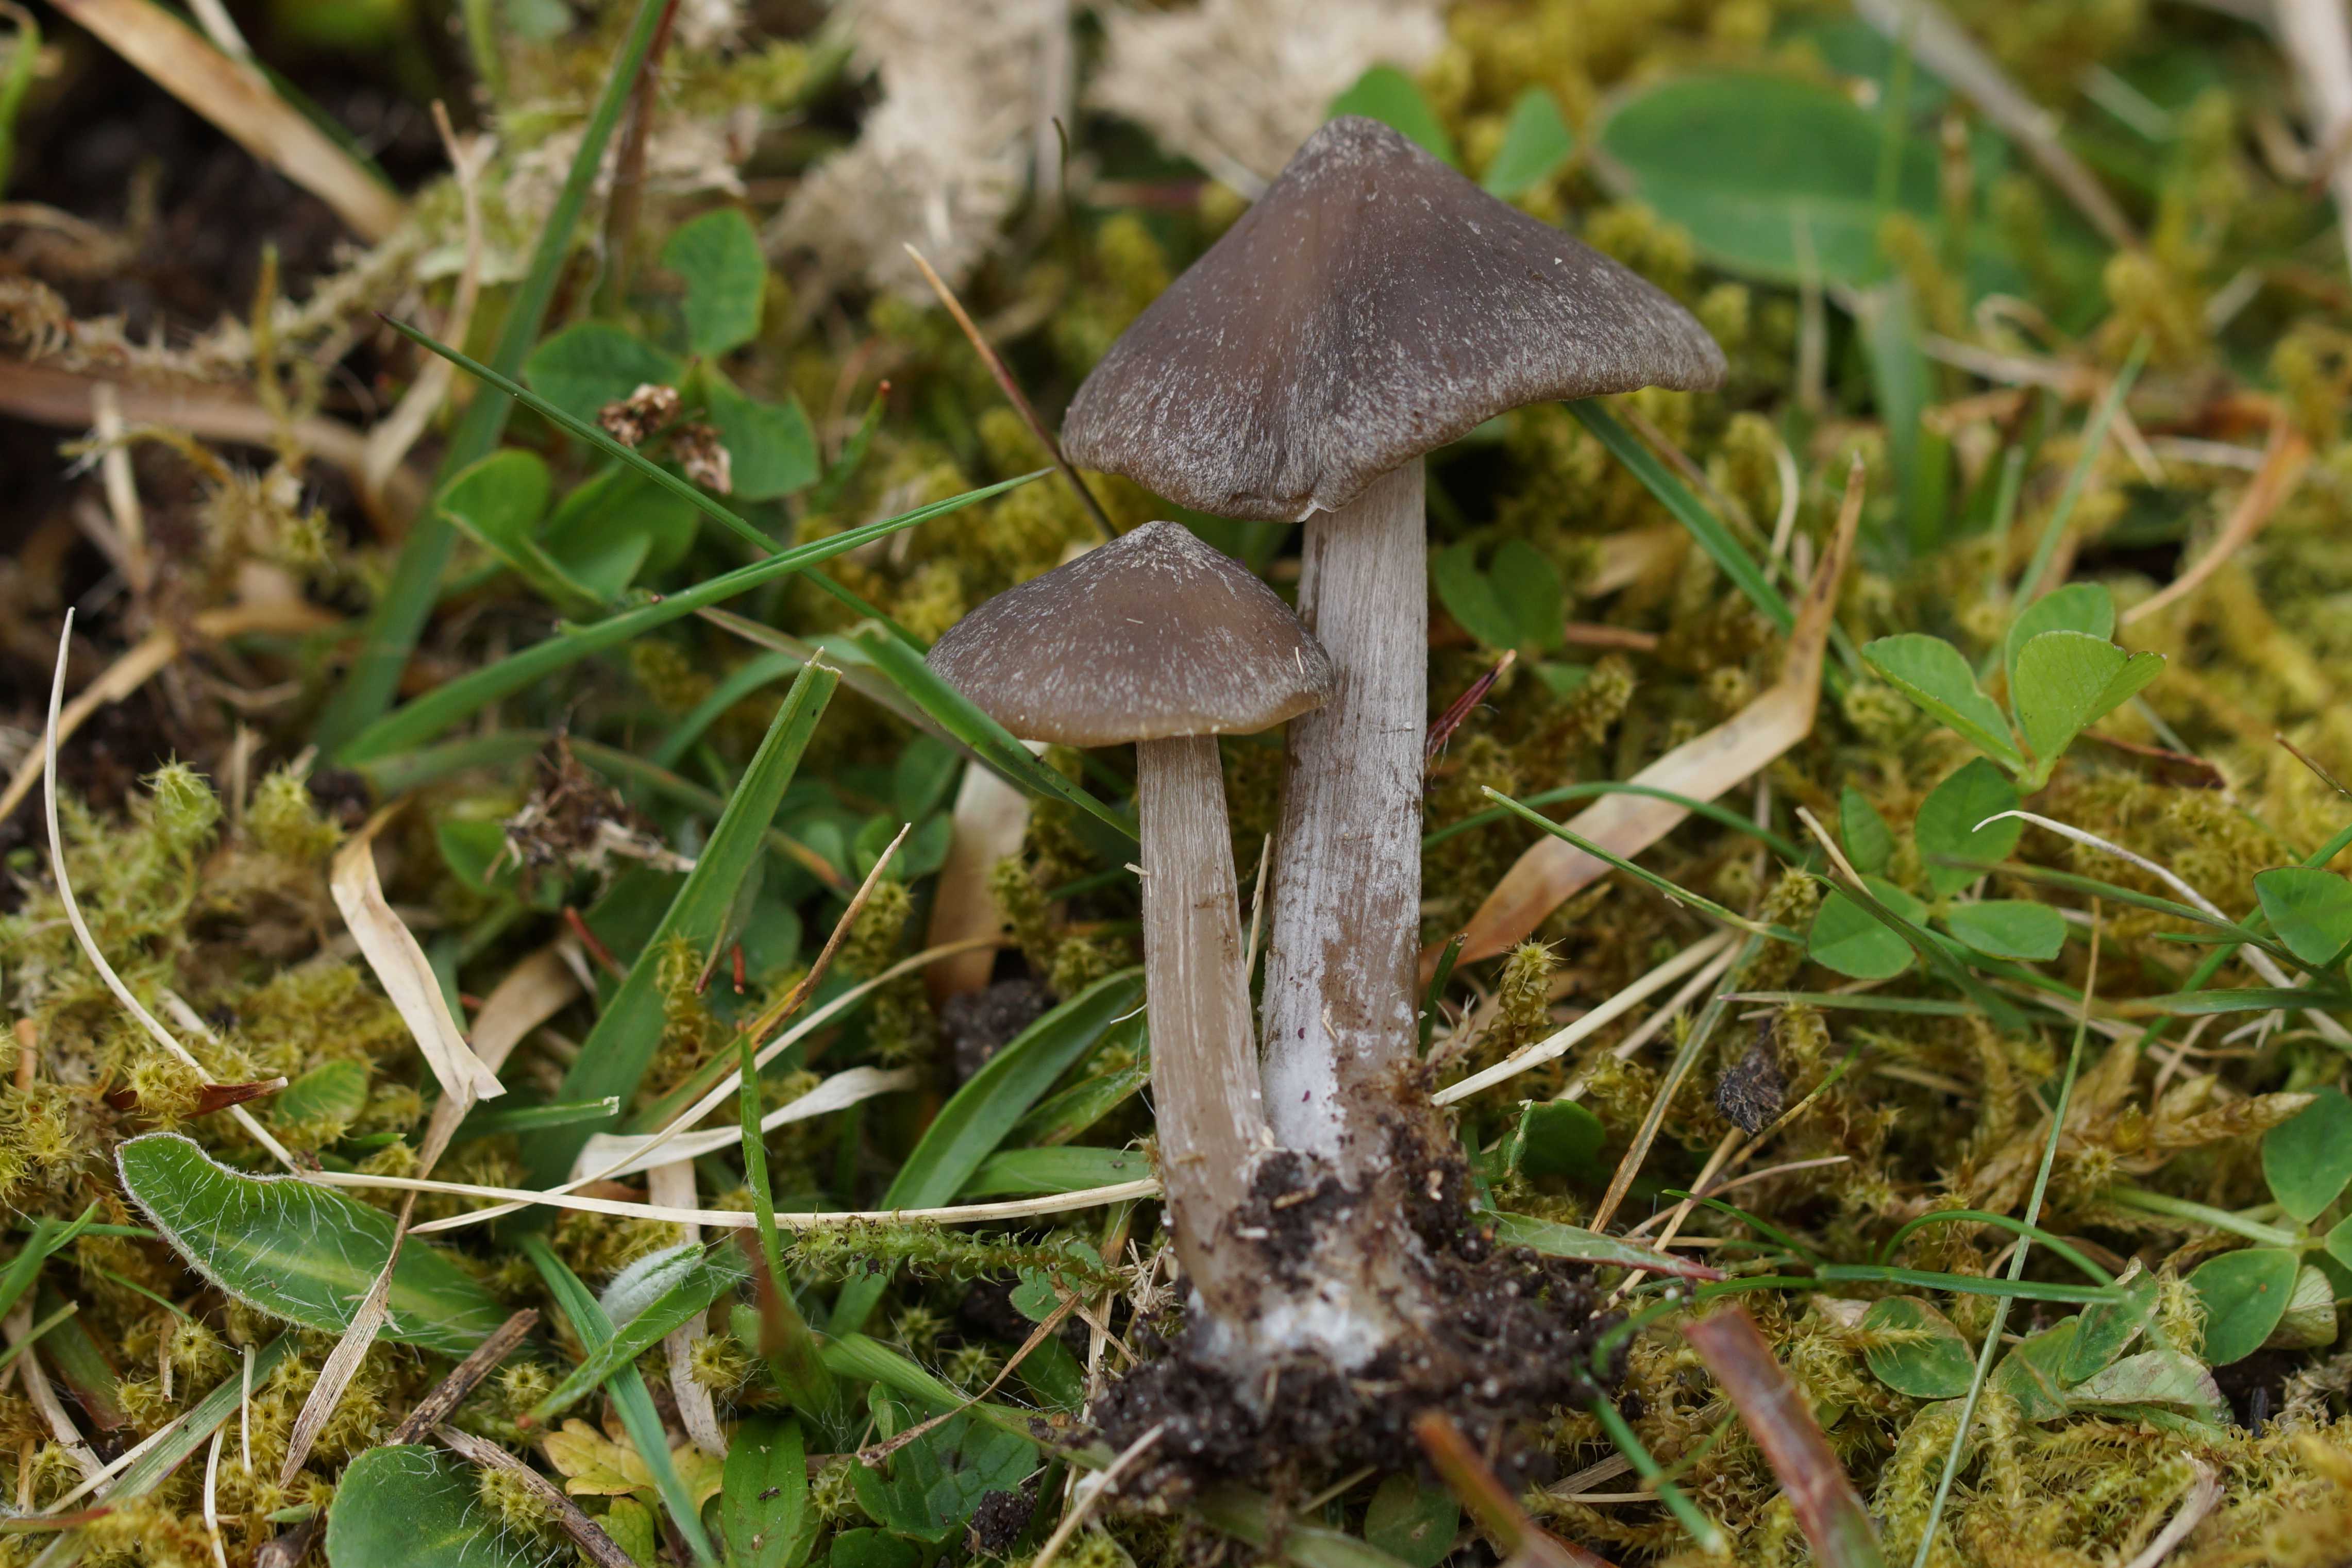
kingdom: Fungi
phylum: Basidiomycota
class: Agaricomycetes
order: Agaricales
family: Entolomataceae
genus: Entoloma
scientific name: Entoloma vernum
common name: vår-rødblad
